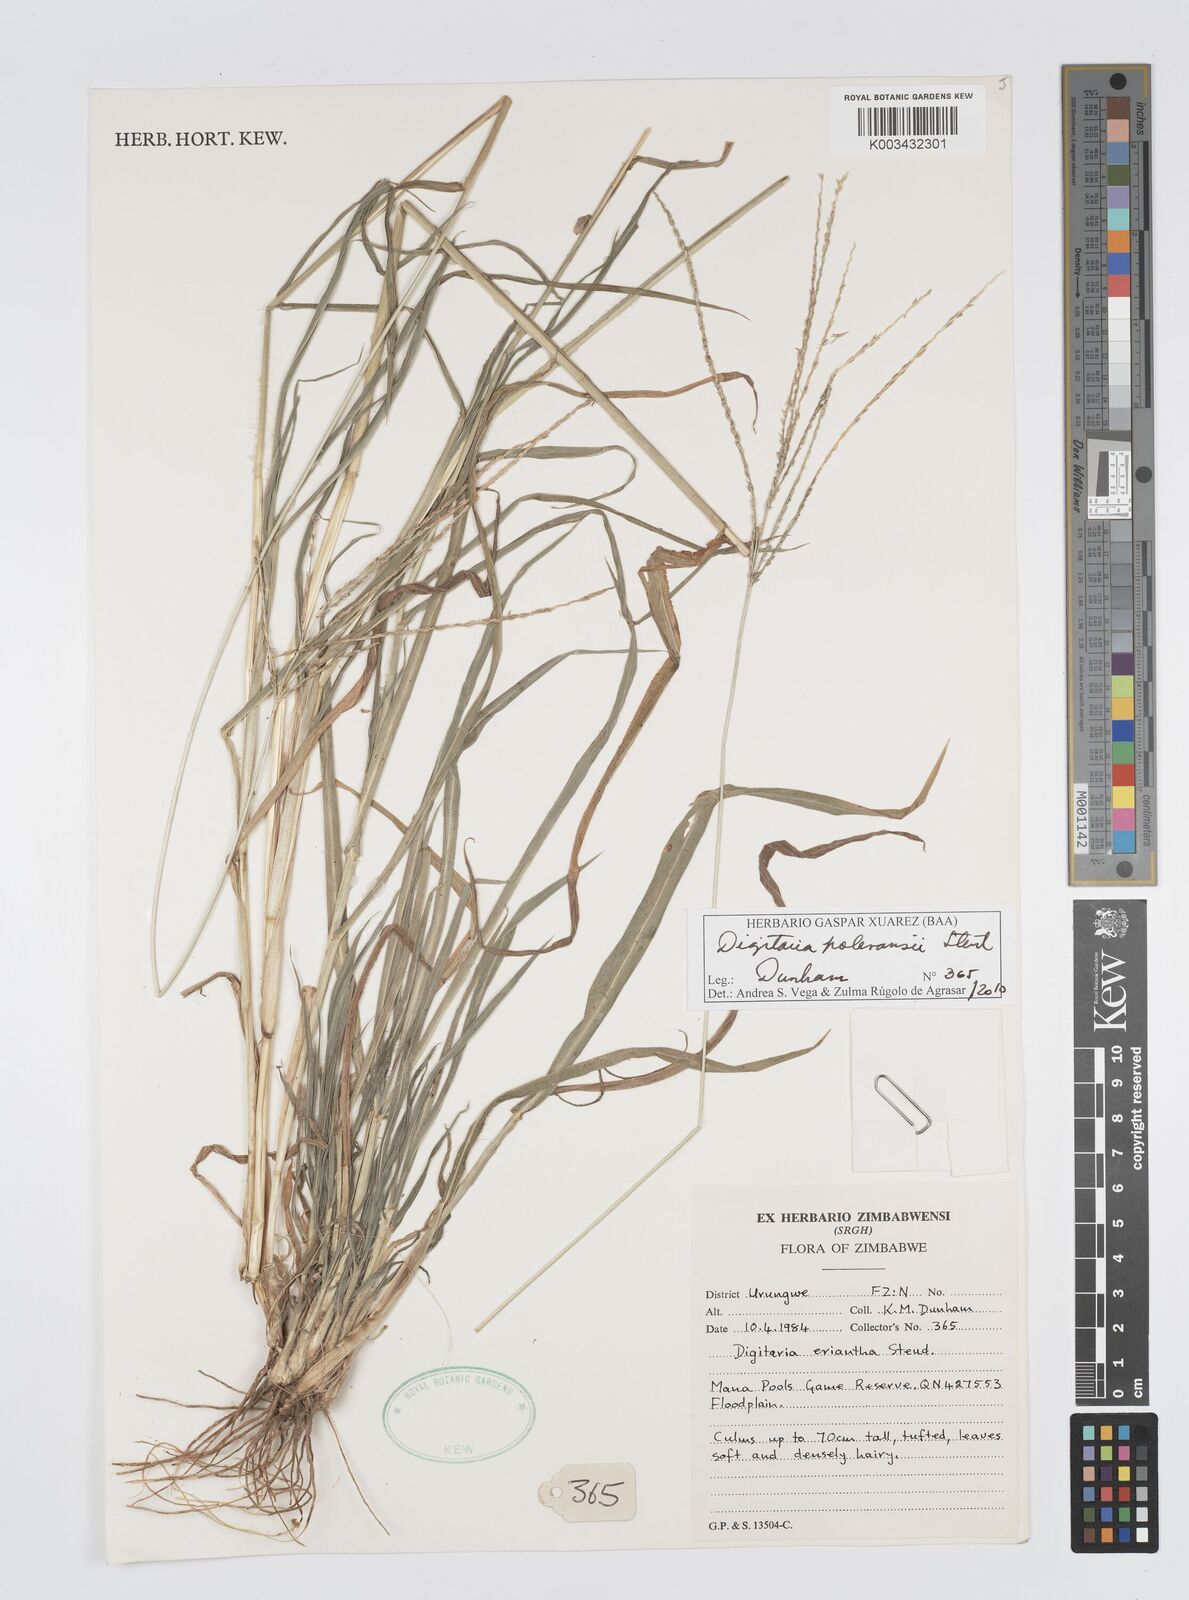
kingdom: Plantae
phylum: Tracheophyta
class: Liliopsida
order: Poales
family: Poaceae
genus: Digitaria
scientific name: Digitaria seriata
